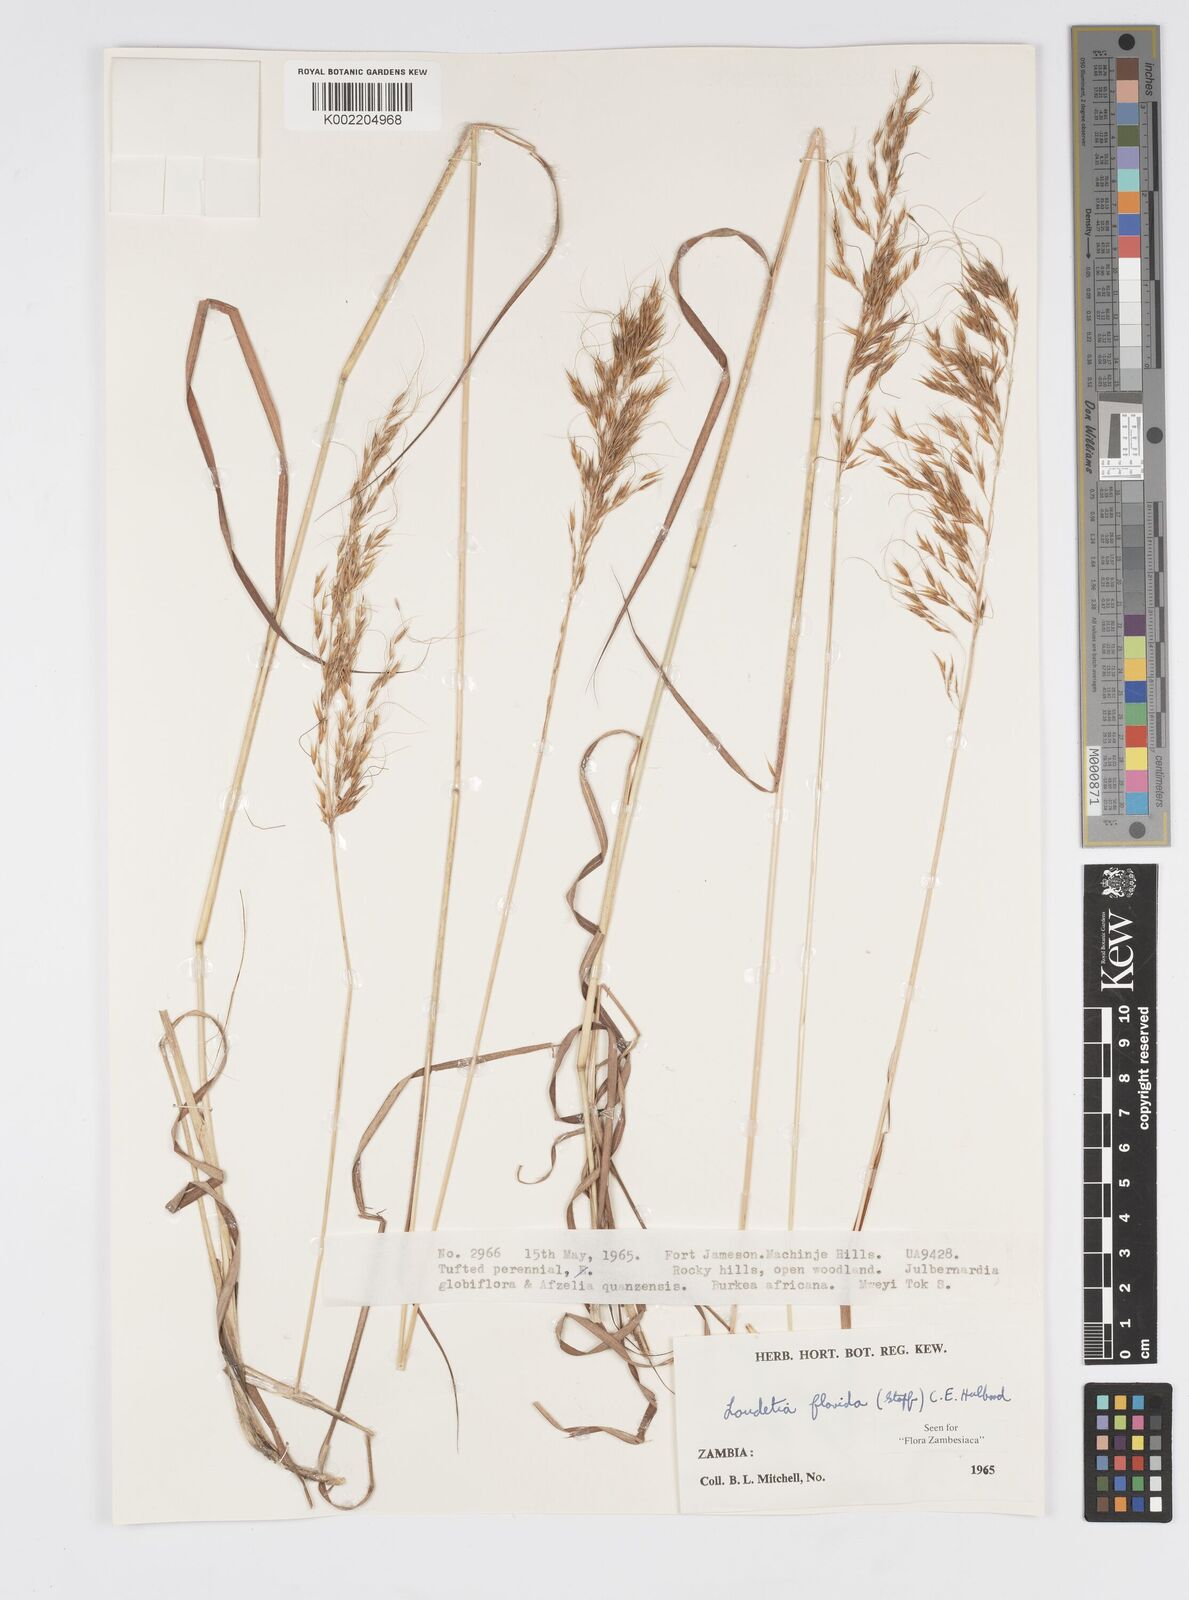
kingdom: Plantae
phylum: Tracheophyta
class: Liliopsida
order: Poales
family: Poaceae
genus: Loudetia
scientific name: Loudetia flavida
